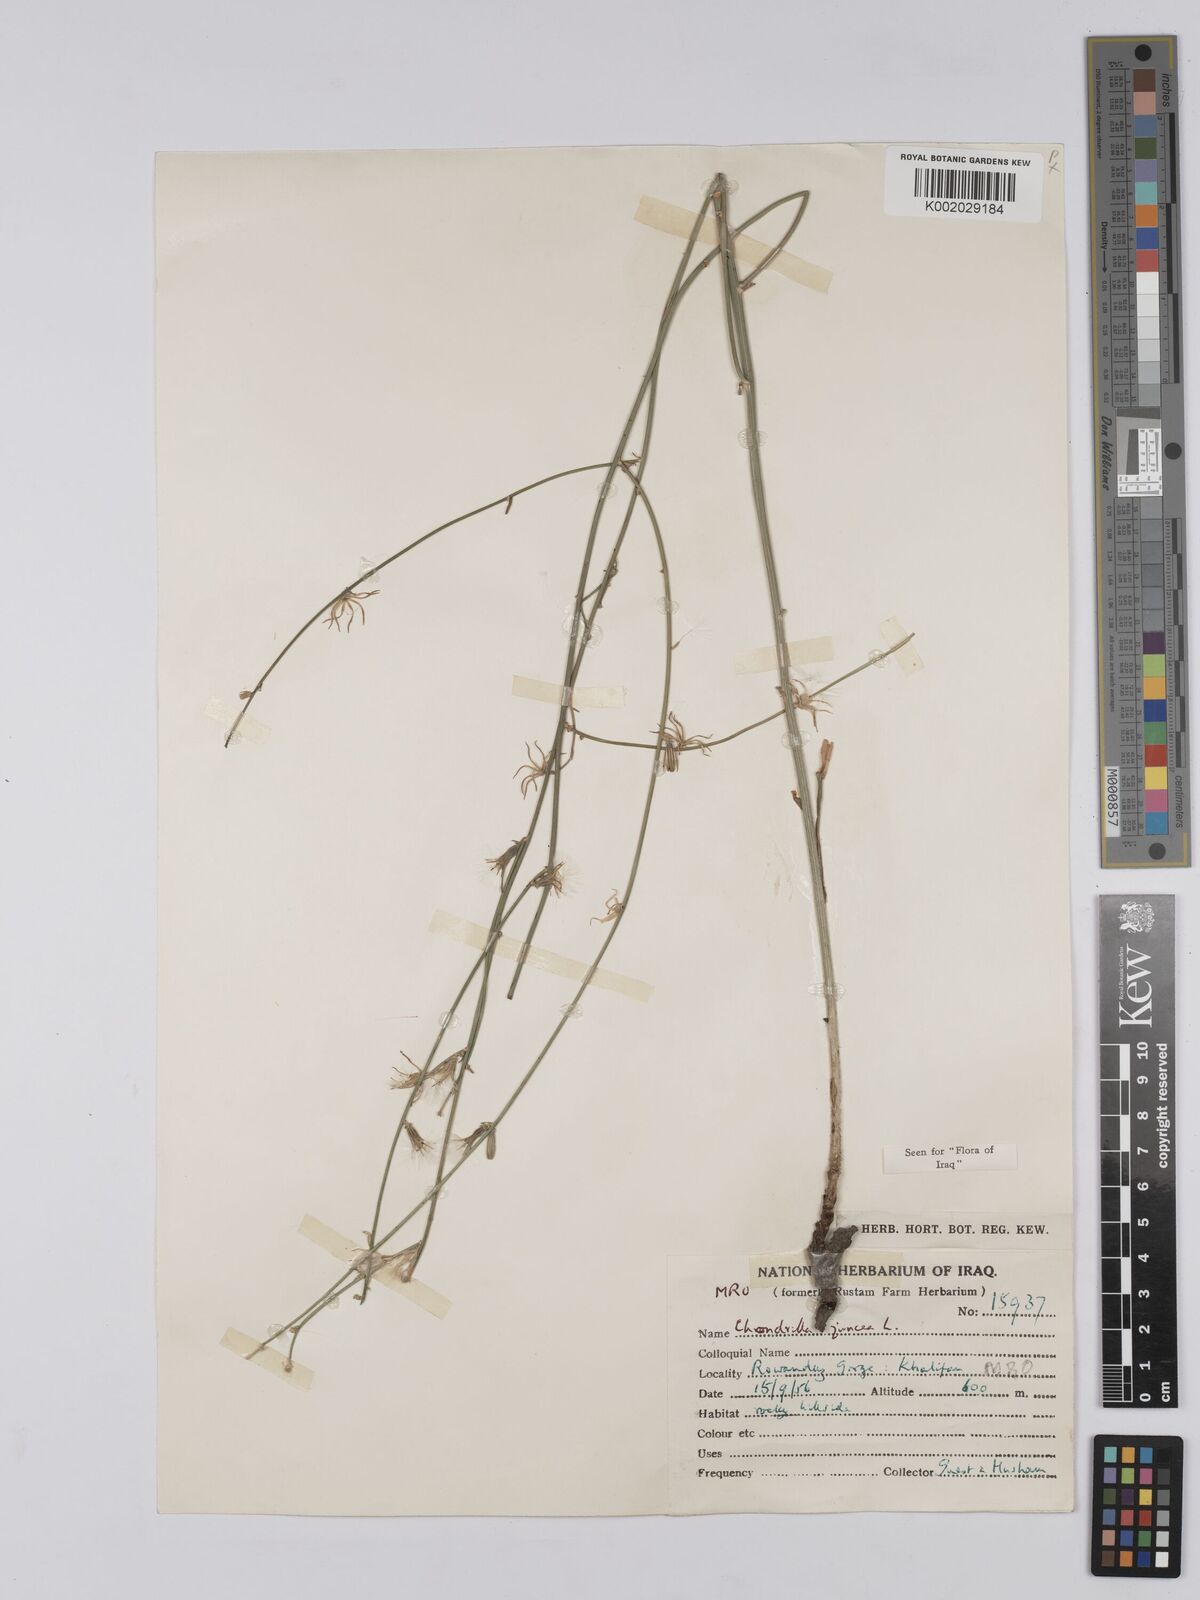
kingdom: Plantae
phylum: Tracheophyta
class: Magnoliopsida
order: Asterales
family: Asteraceae
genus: Chondrilla
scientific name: Chondrilla juncea
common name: Skeleton weed
